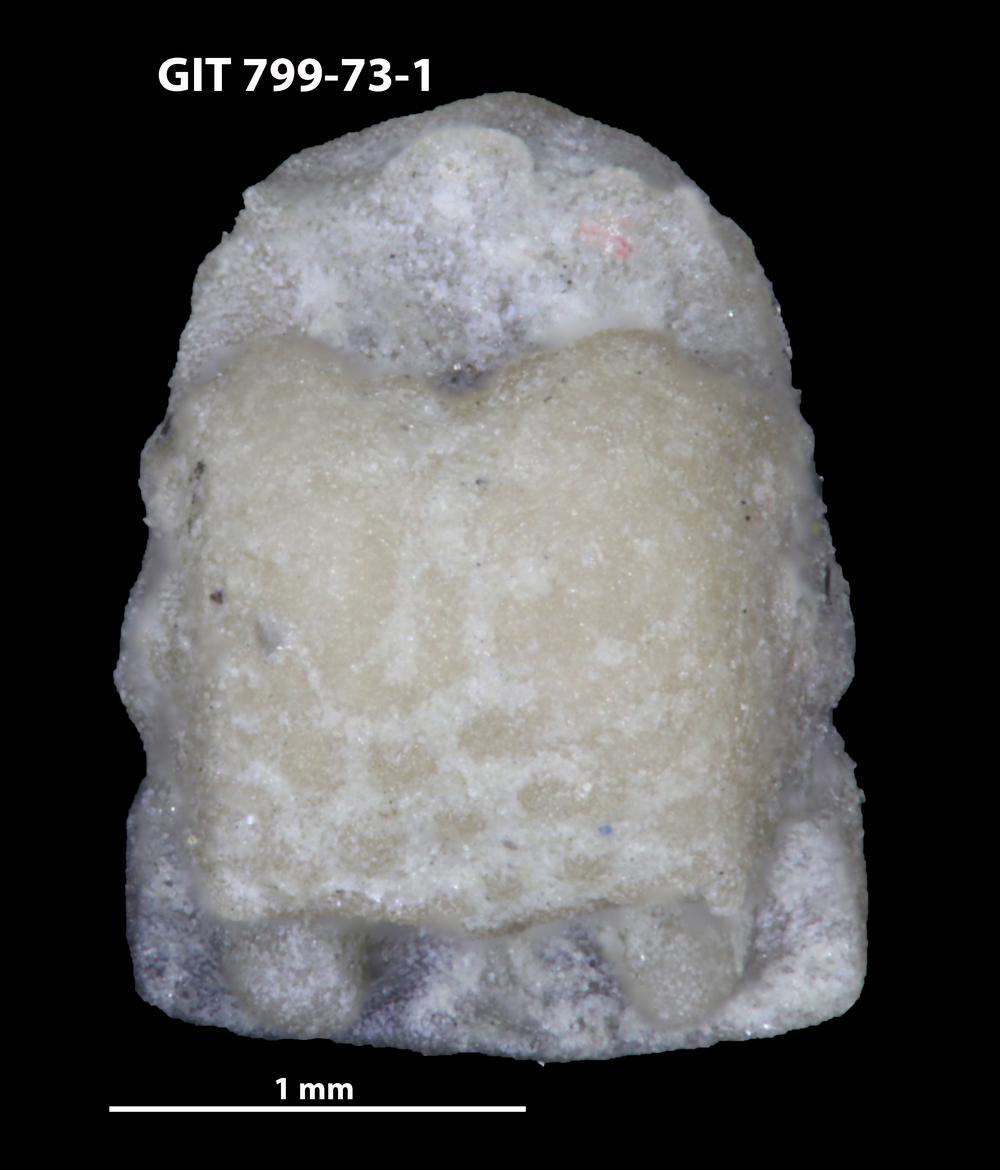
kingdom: Animalia
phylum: Echinodermata
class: Crinoidea
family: Cyclocystoididae
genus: Polytryphocycloides
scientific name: Polytryphocycloides Cyclocystoides lindstroemi
